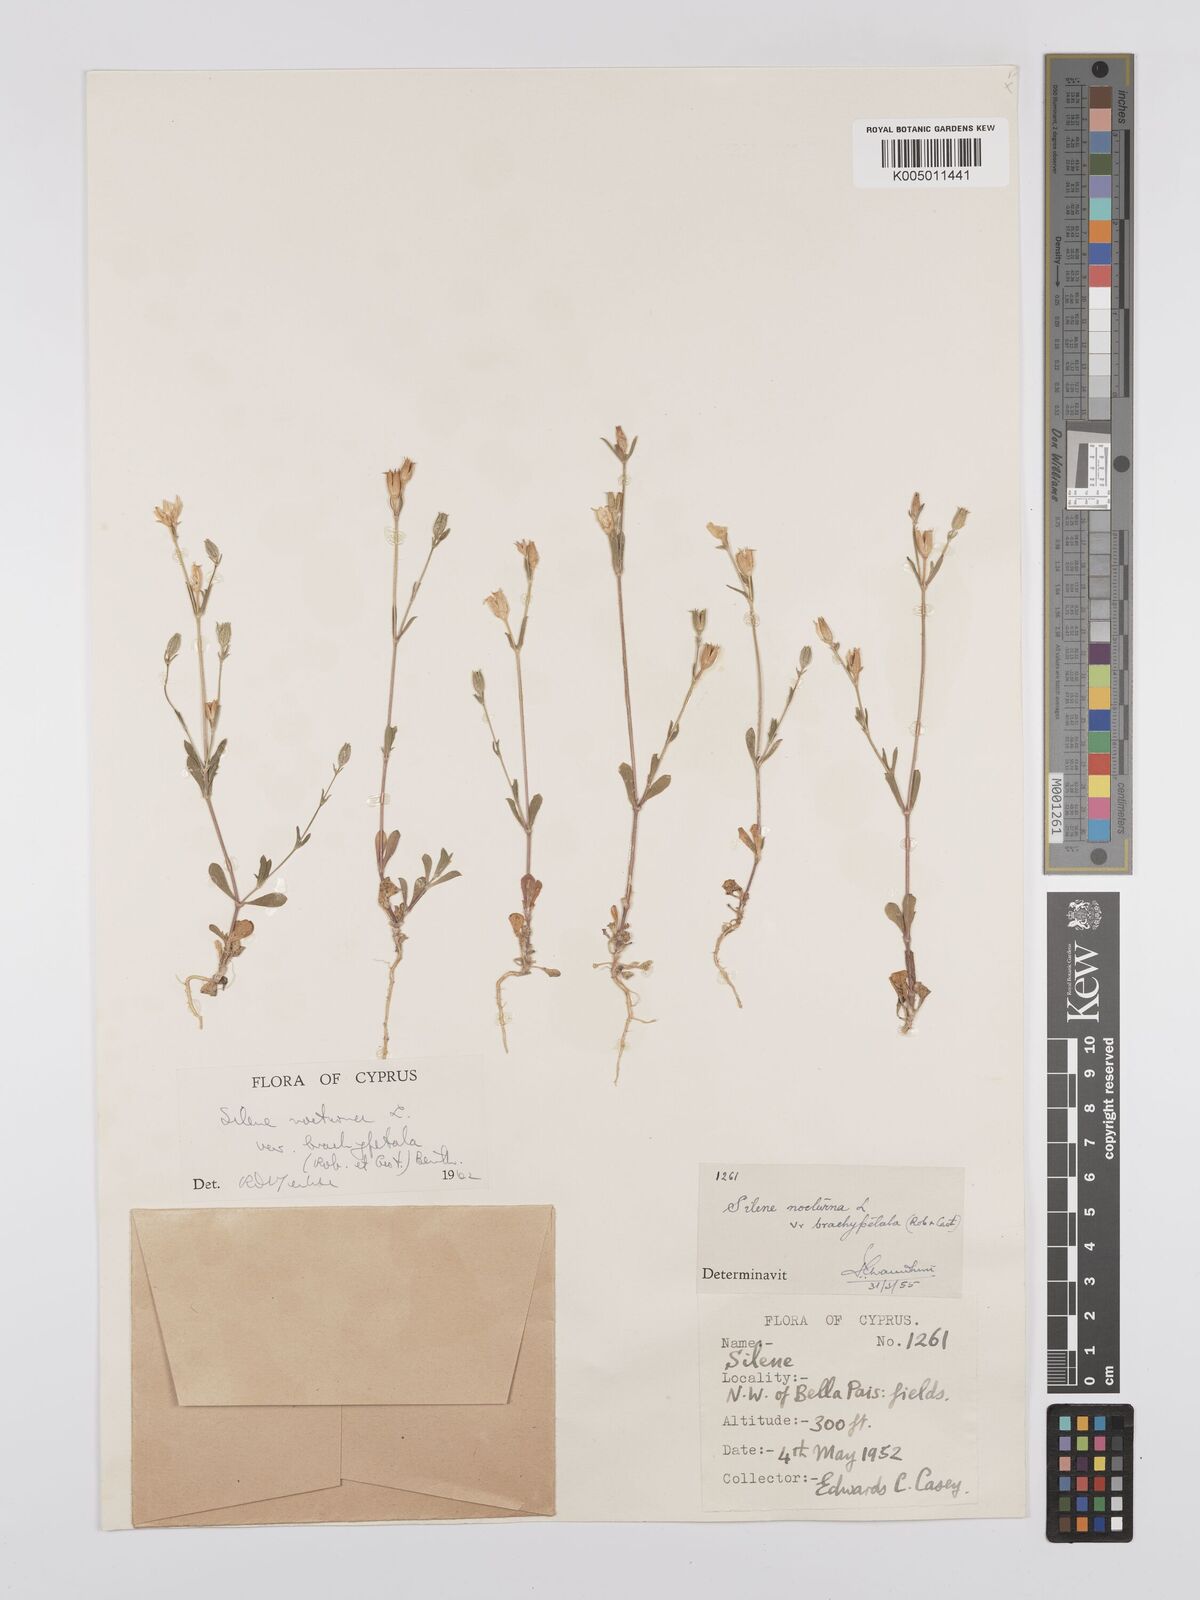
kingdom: Plantae
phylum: Tracheophyta
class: Magnoliopsida
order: Caryophyllales
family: Caryophyllaceae
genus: Silene
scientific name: Silene nocturna
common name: Mediterranean catchfly
